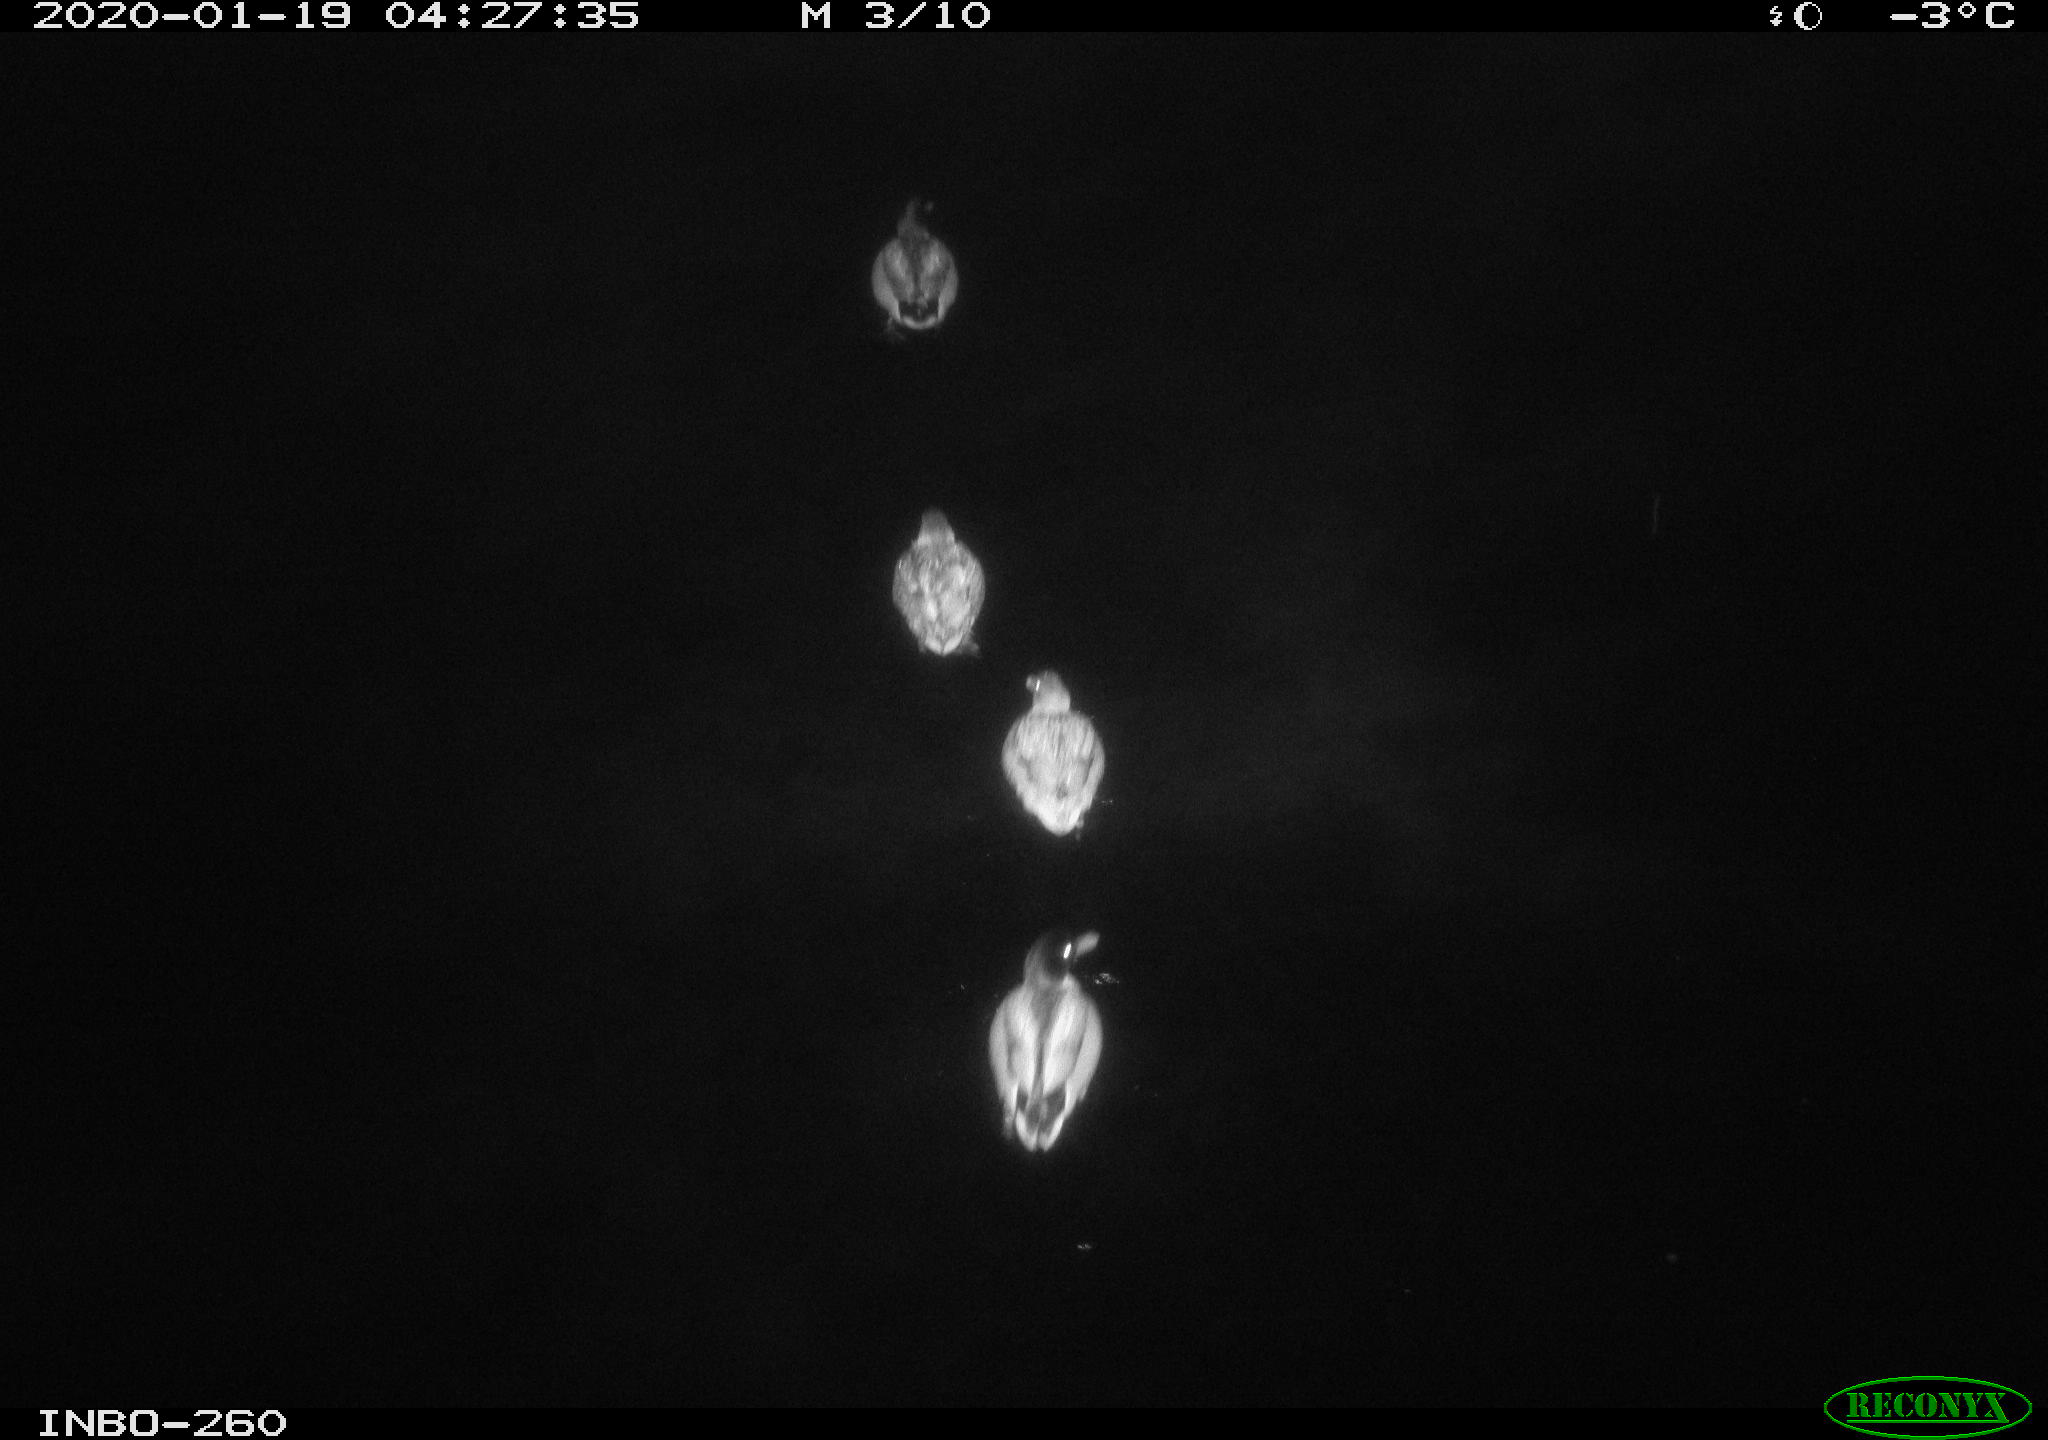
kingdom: Animalia
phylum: Chordata
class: Aves
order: Anseriformes
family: Anatidae
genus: Anas
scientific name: Anas platyrhynchos
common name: Mallard
